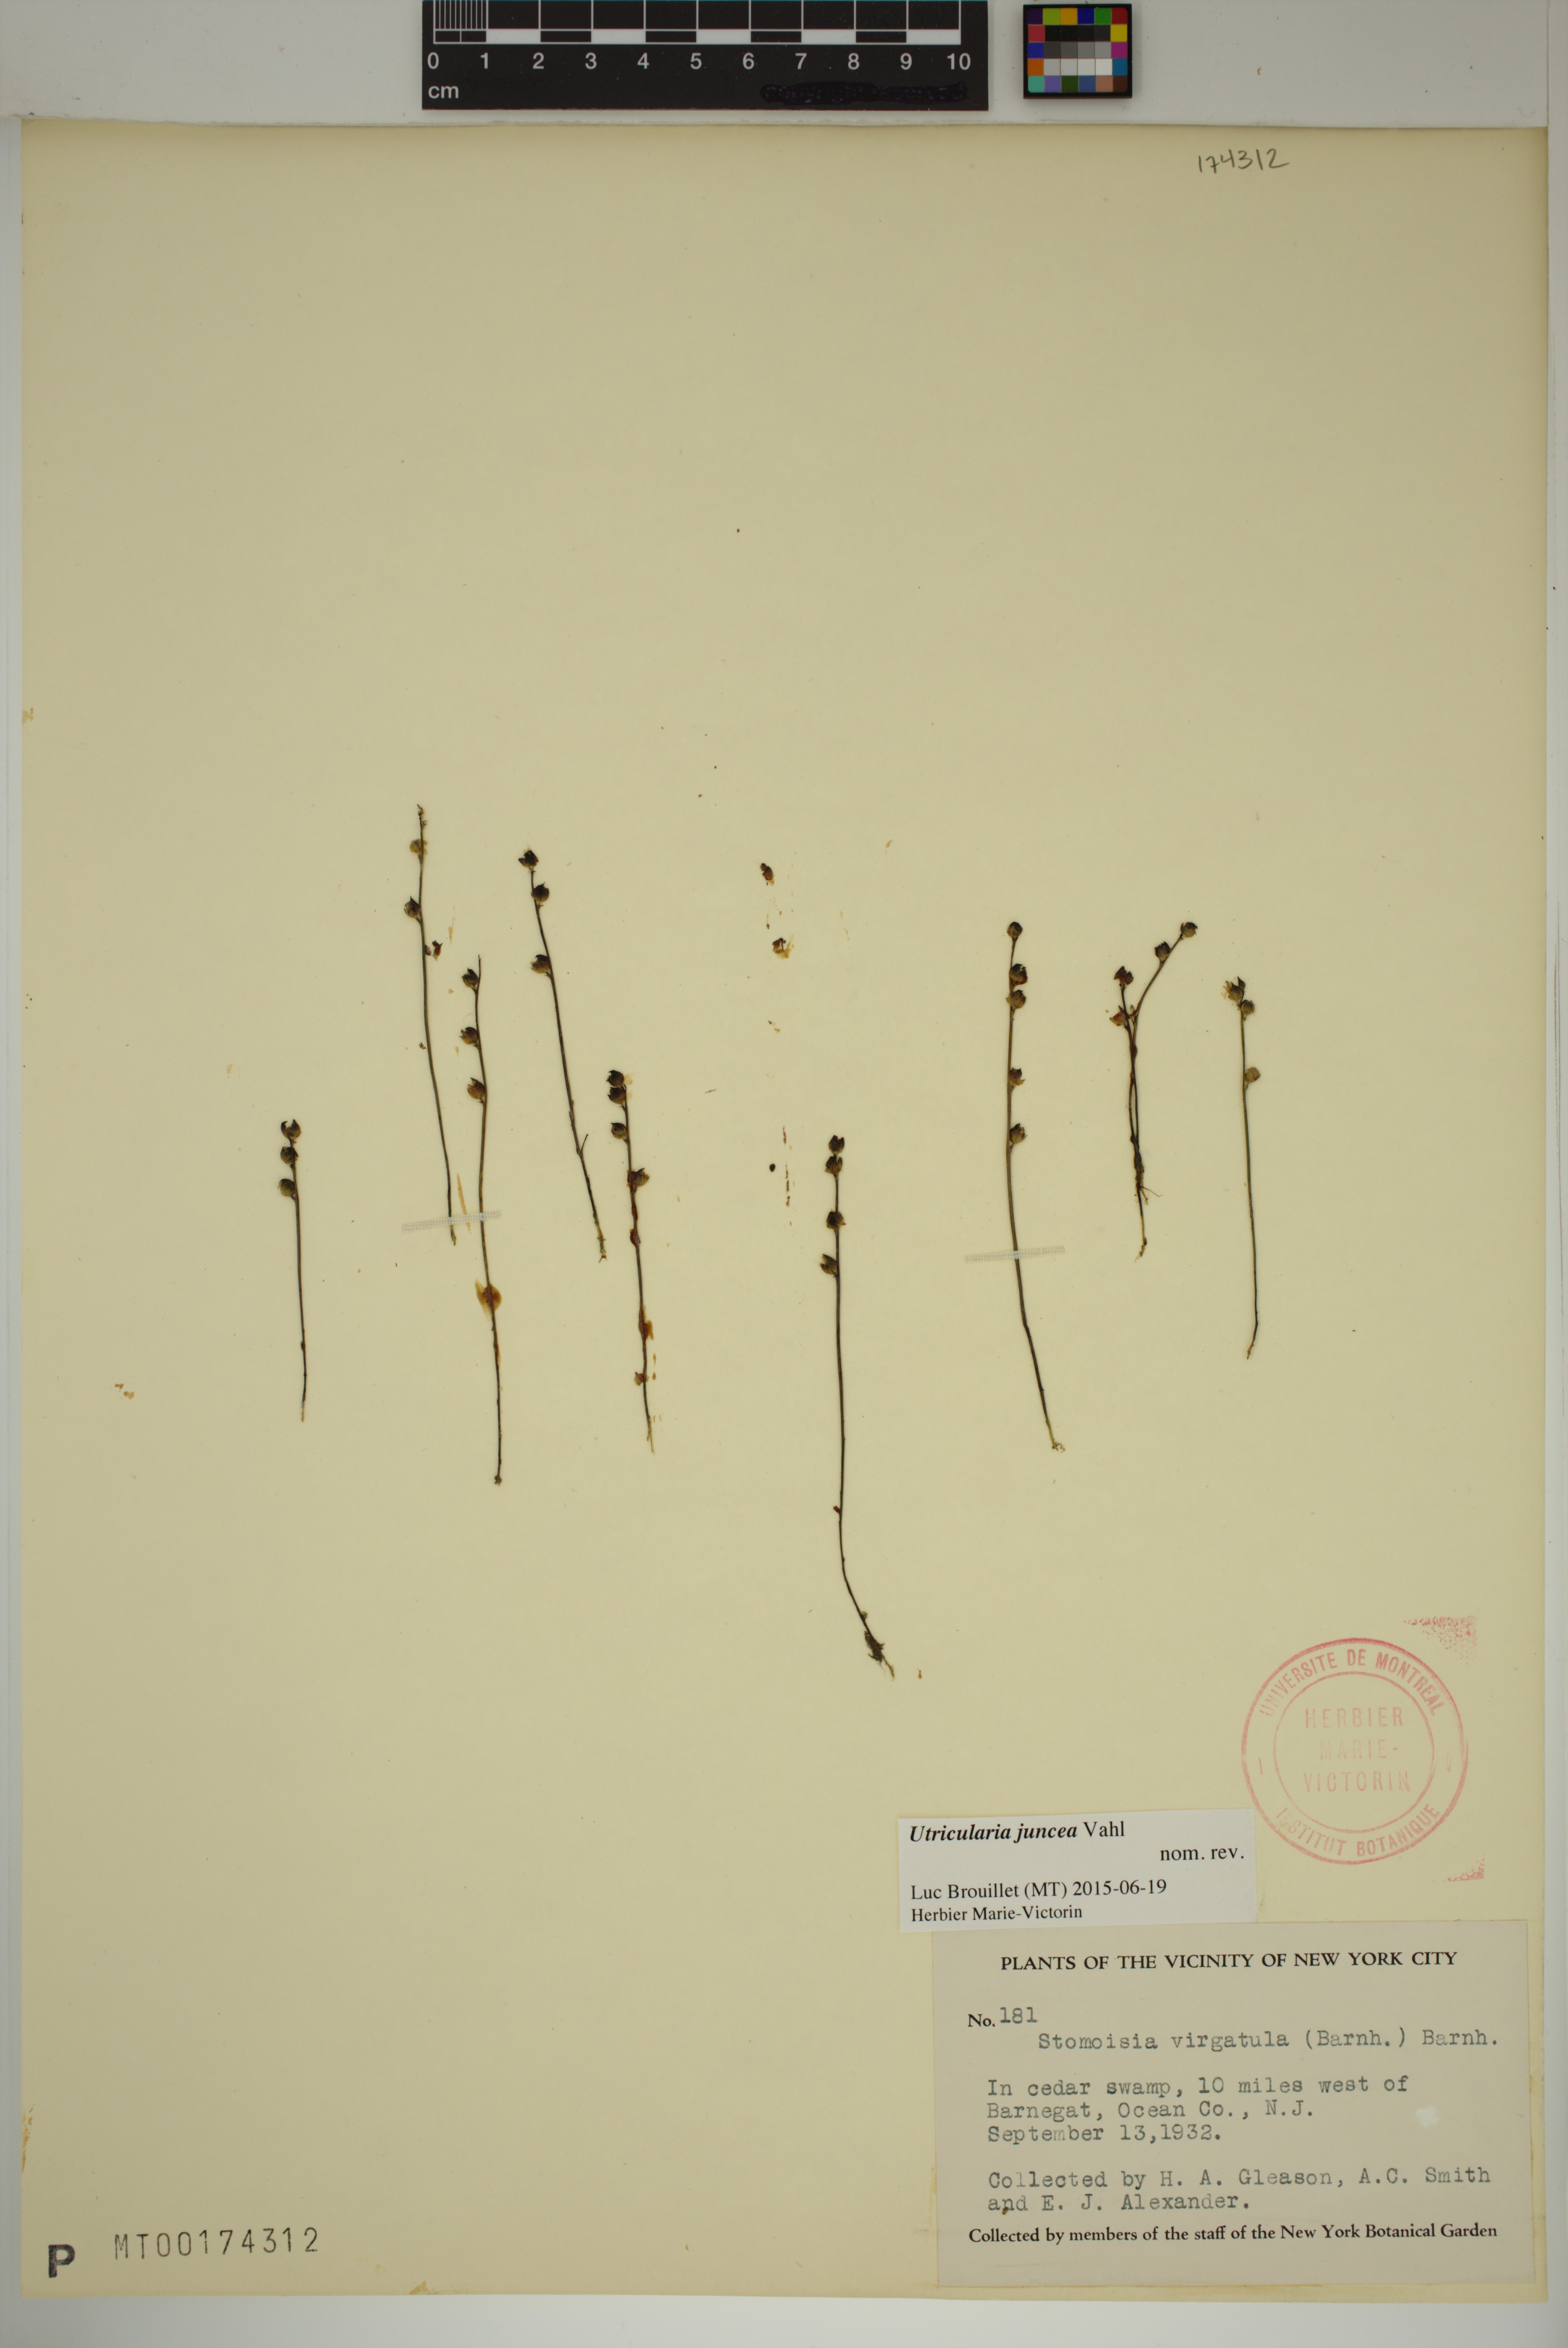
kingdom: Plantae
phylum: Tracheophyta
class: Magnoliopsida
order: Lamiales
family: Lentibulariaceae
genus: Utricularia
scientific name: Utricularia juncea
